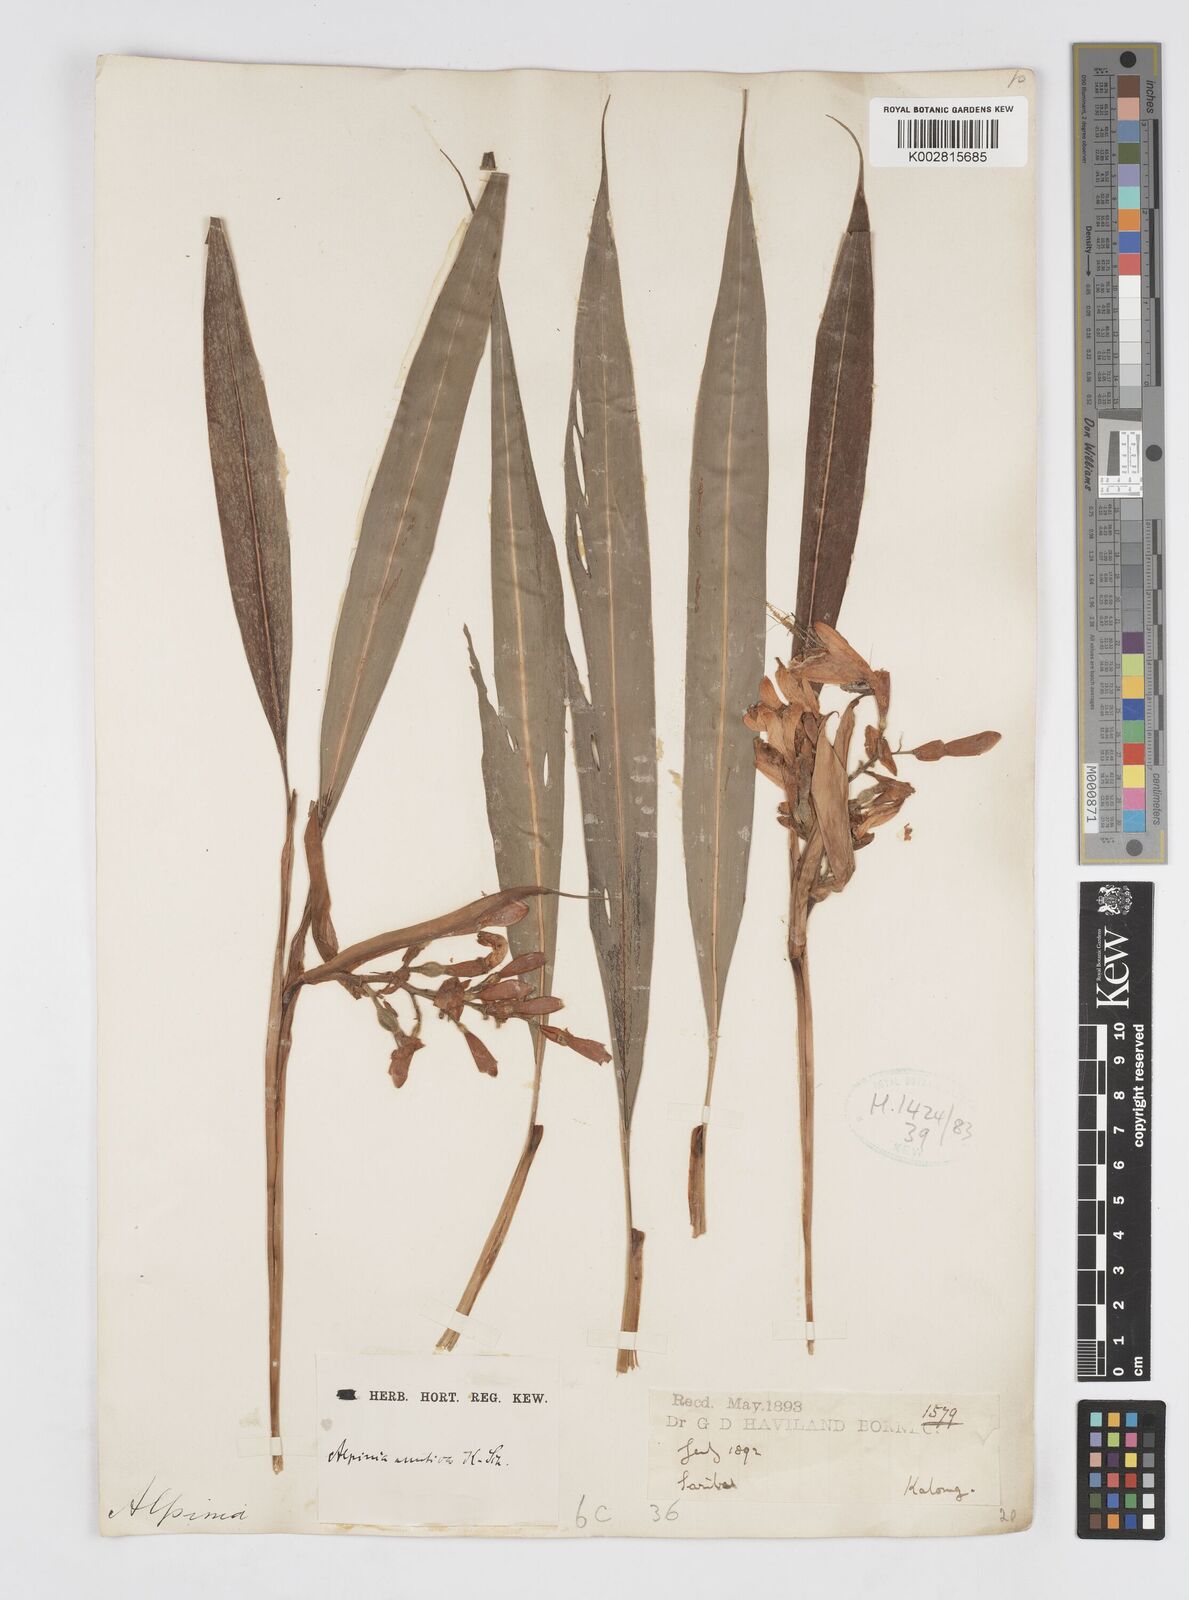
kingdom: Plantae
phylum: Tracheophyta
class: Liliopsida
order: Zingiberales
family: Zingiberaceae
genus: Alpinia
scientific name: Alpinia mutica
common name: Small shell ginger
